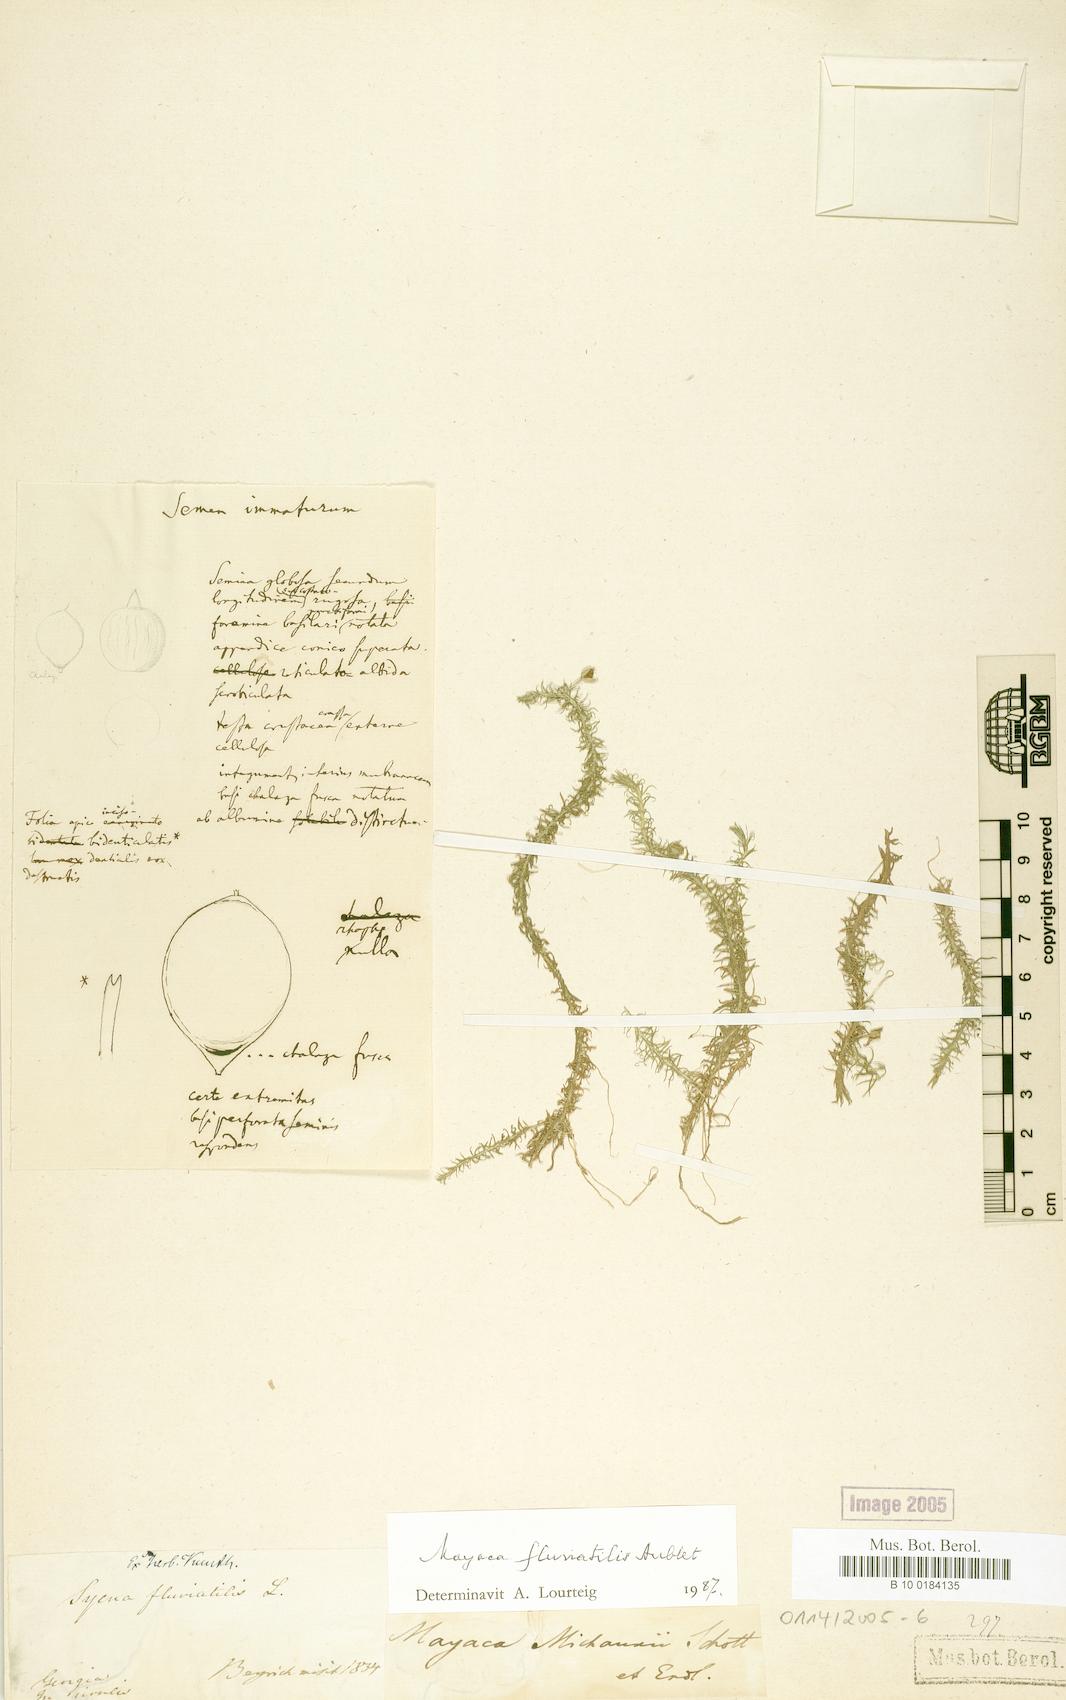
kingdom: Plantae
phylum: Tracheophyta
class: Liliopsida
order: Poales
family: Mayacaceae
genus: Mayaca
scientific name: Mayaca fluviatilis
